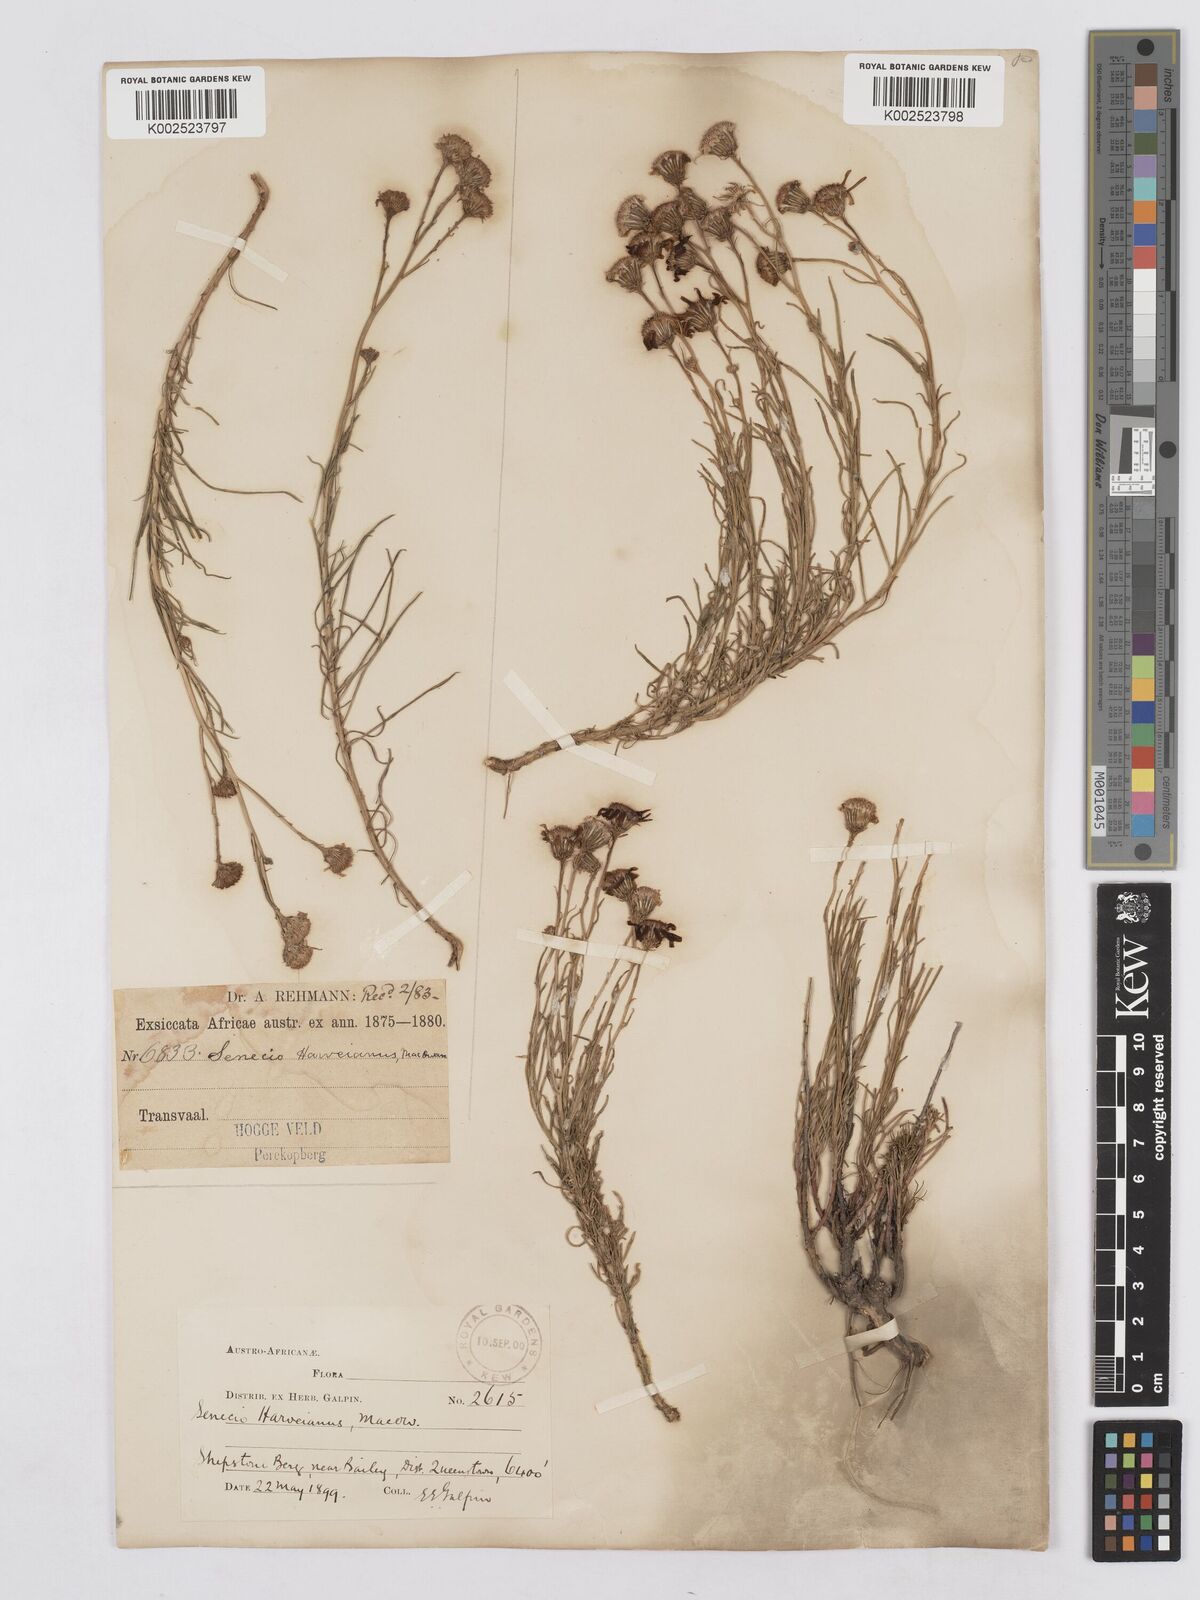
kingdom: Plantae
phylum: Tracheophyta
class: Magnoliopsida
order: Asterales
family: Asteraceae
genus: Senecio
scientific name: Senecio harveyanus
